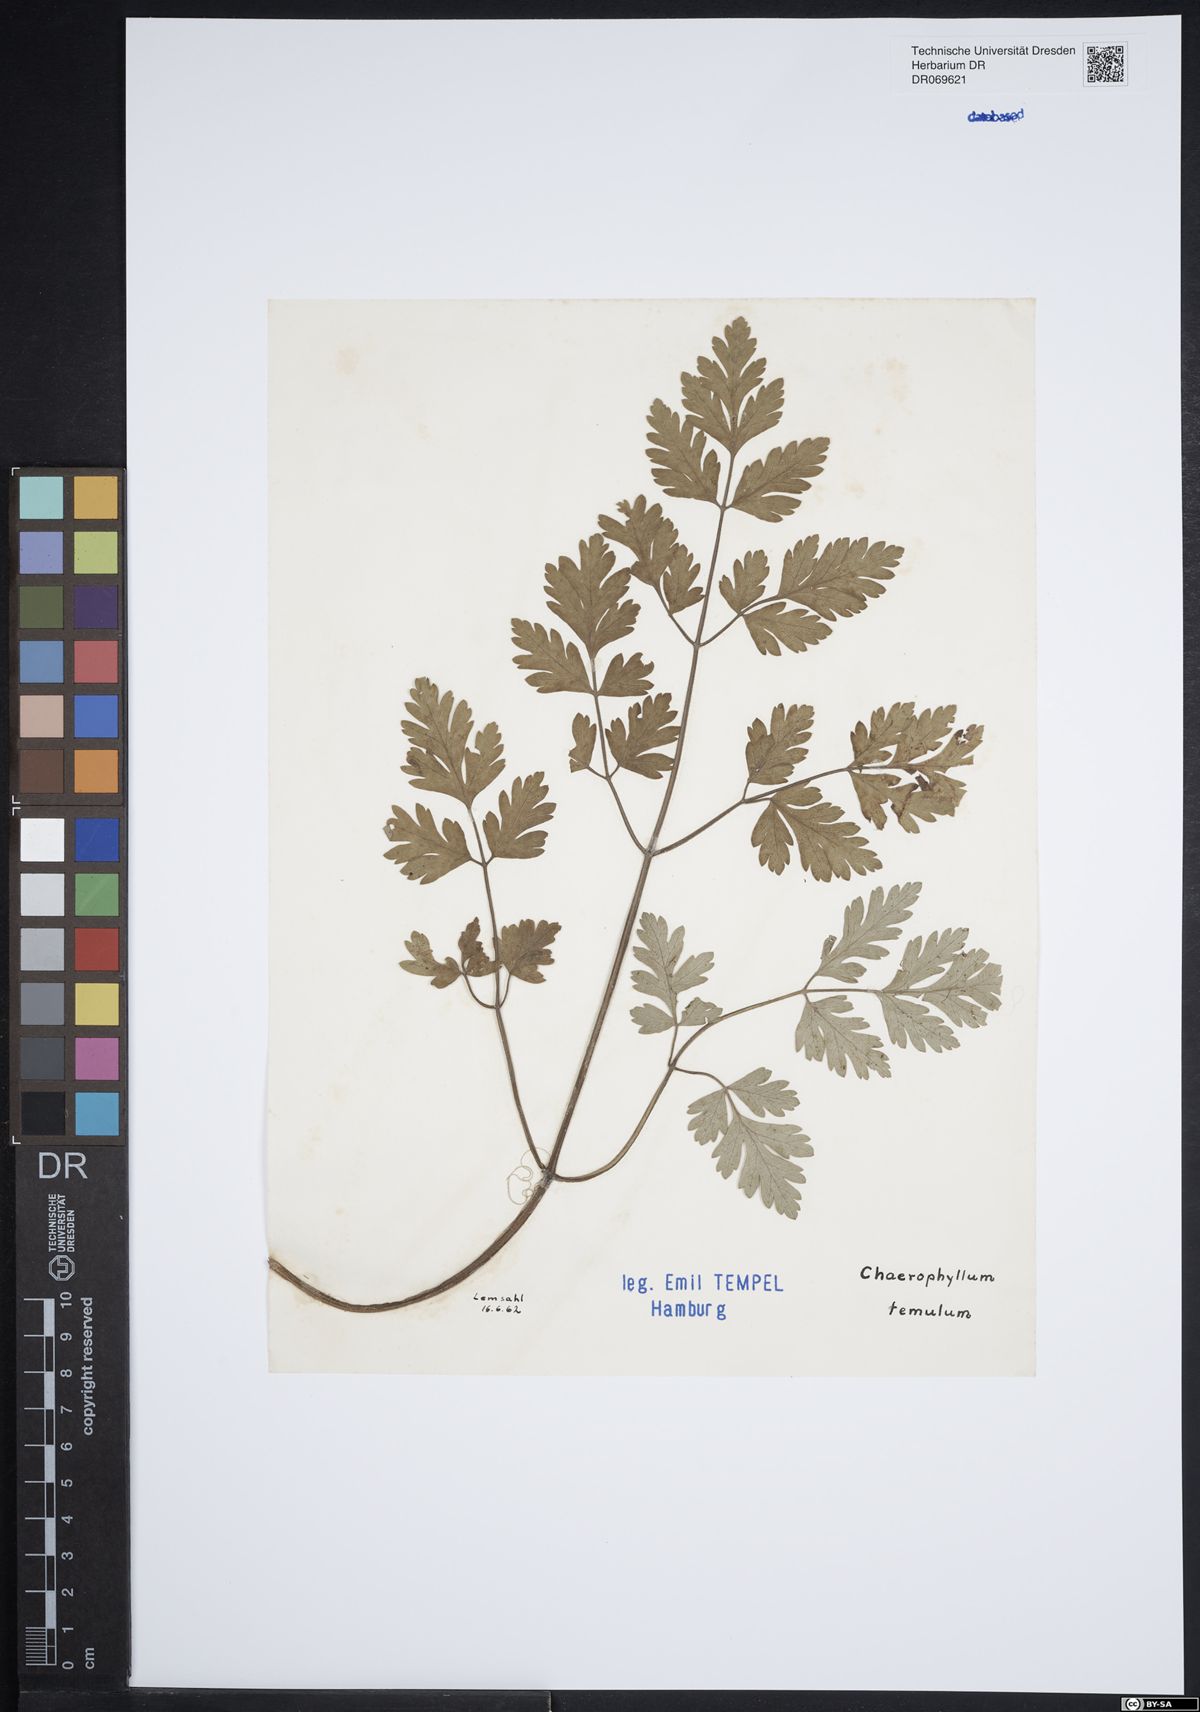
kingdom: Plantae
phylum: Tracheophyta
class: Magnoliopsida
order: Apiales
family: Apiaceae
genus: Chaerophyllum
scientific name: Chaerophyllum temulum
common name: Rough chervil
